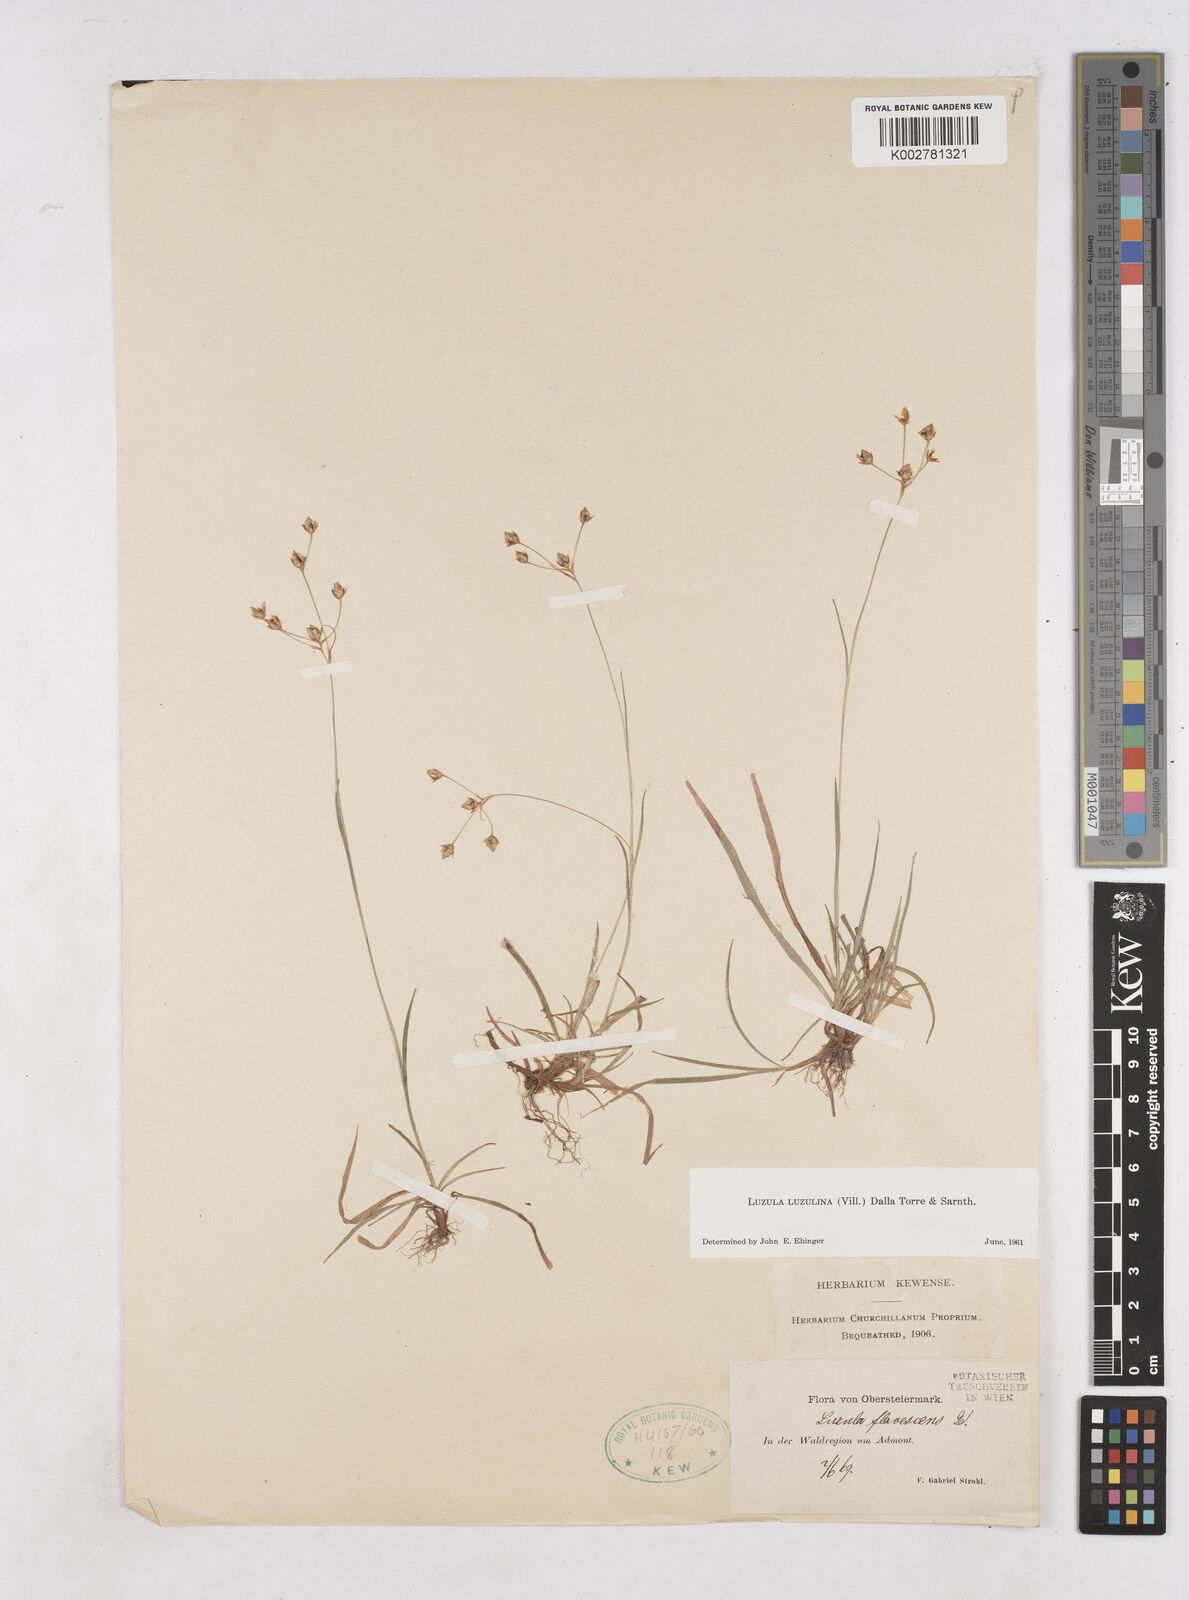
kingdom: Plantae
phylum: Tracheophyta
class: Liliopsida
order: Poales
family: Juncaceae
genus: Luzula
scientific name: Luzula luzulina
